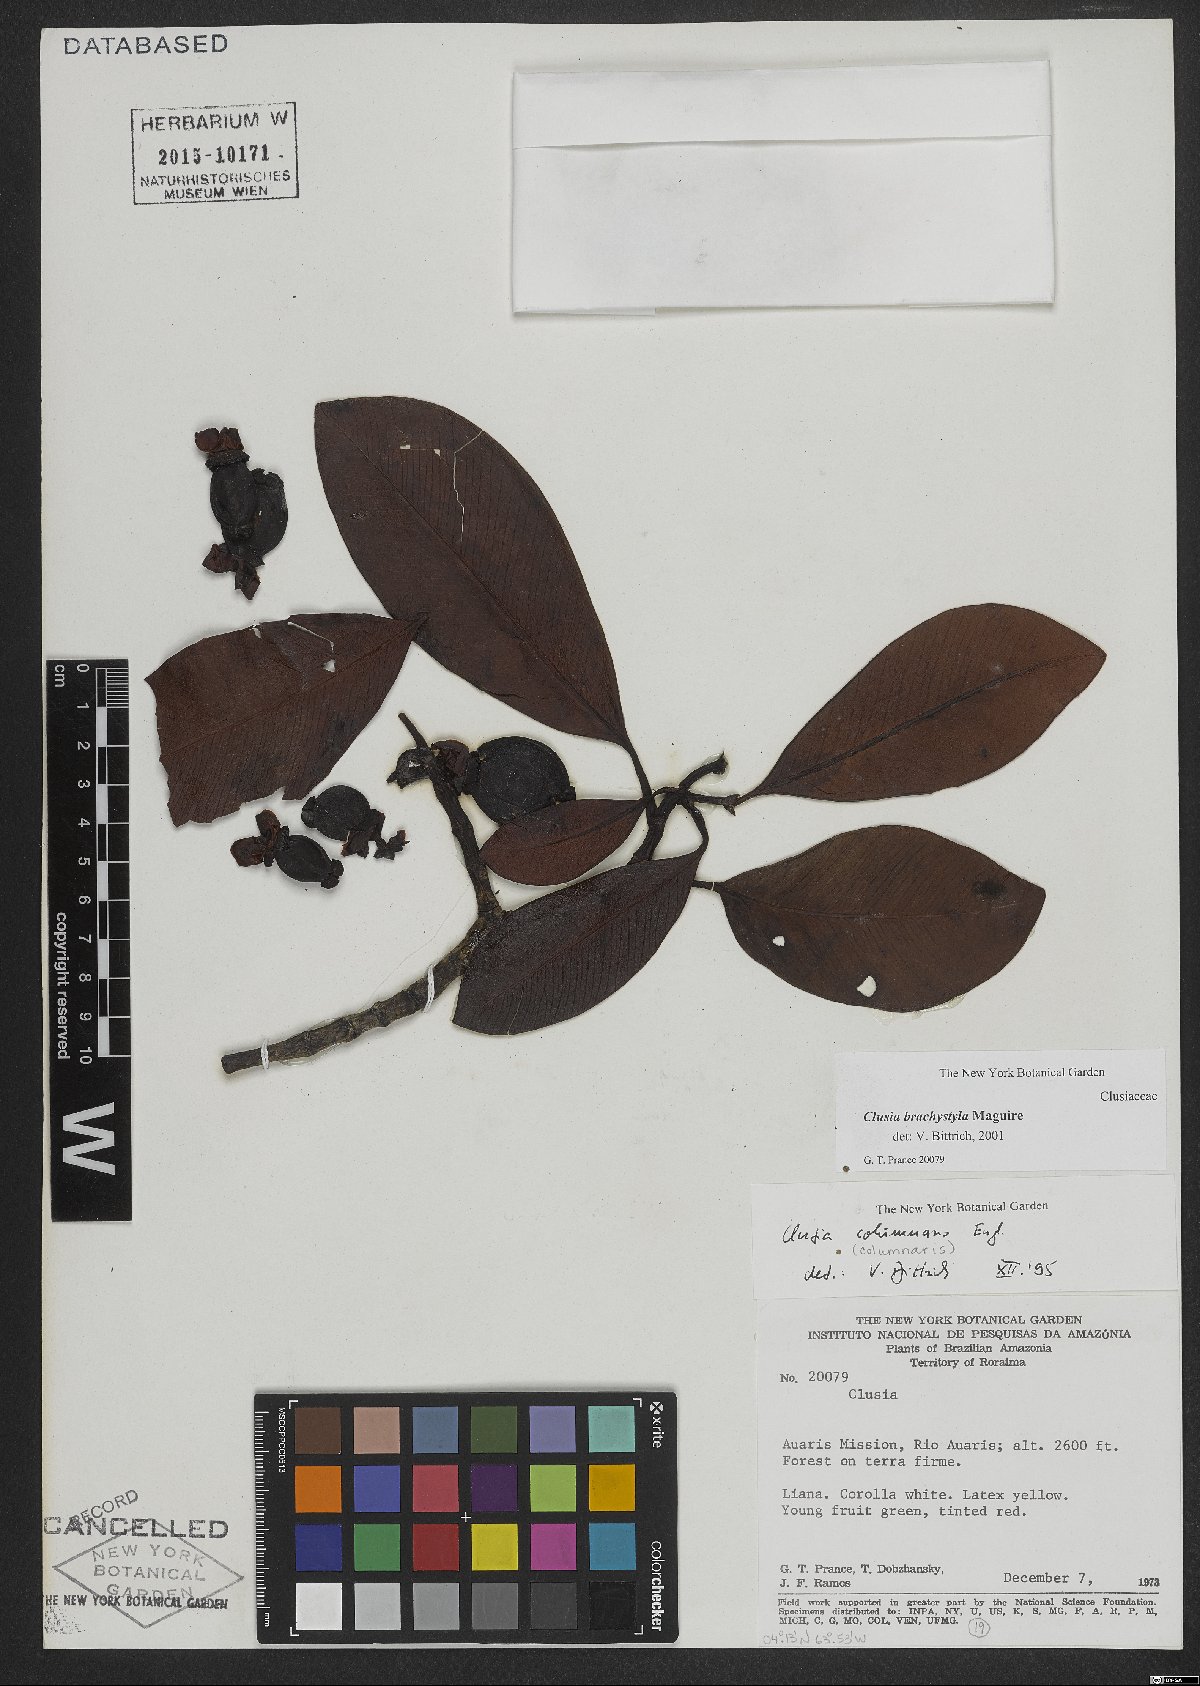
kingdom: Plantae
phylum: Tracheophyta
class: Magnoliopsida
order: Malpighiales
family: Clusiaceae
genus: Clusia
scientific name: Clusia brachystyla
